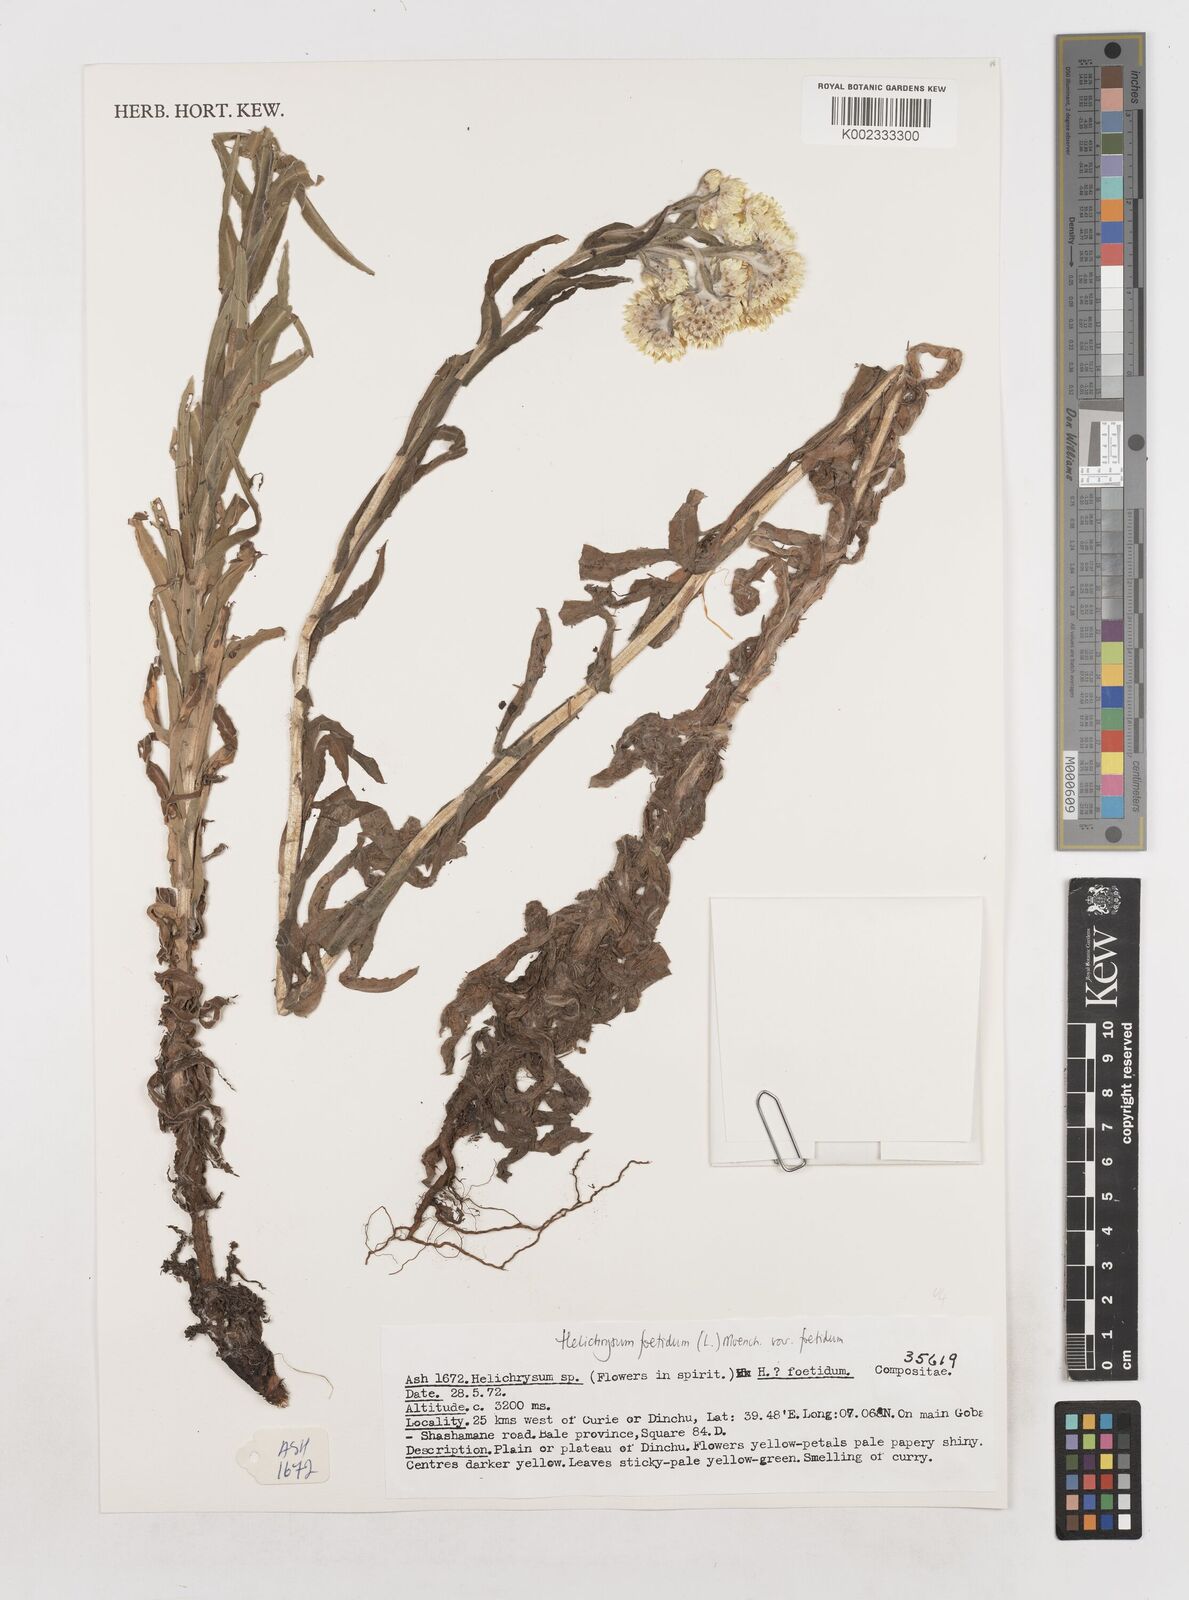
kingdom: Plantae
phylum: Tracheophyta
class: Magnoliopsida
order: Asterales
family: Asteraceae
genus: Helichrysum
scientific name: Helichrysum foetidum
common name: Stinking everlasting
